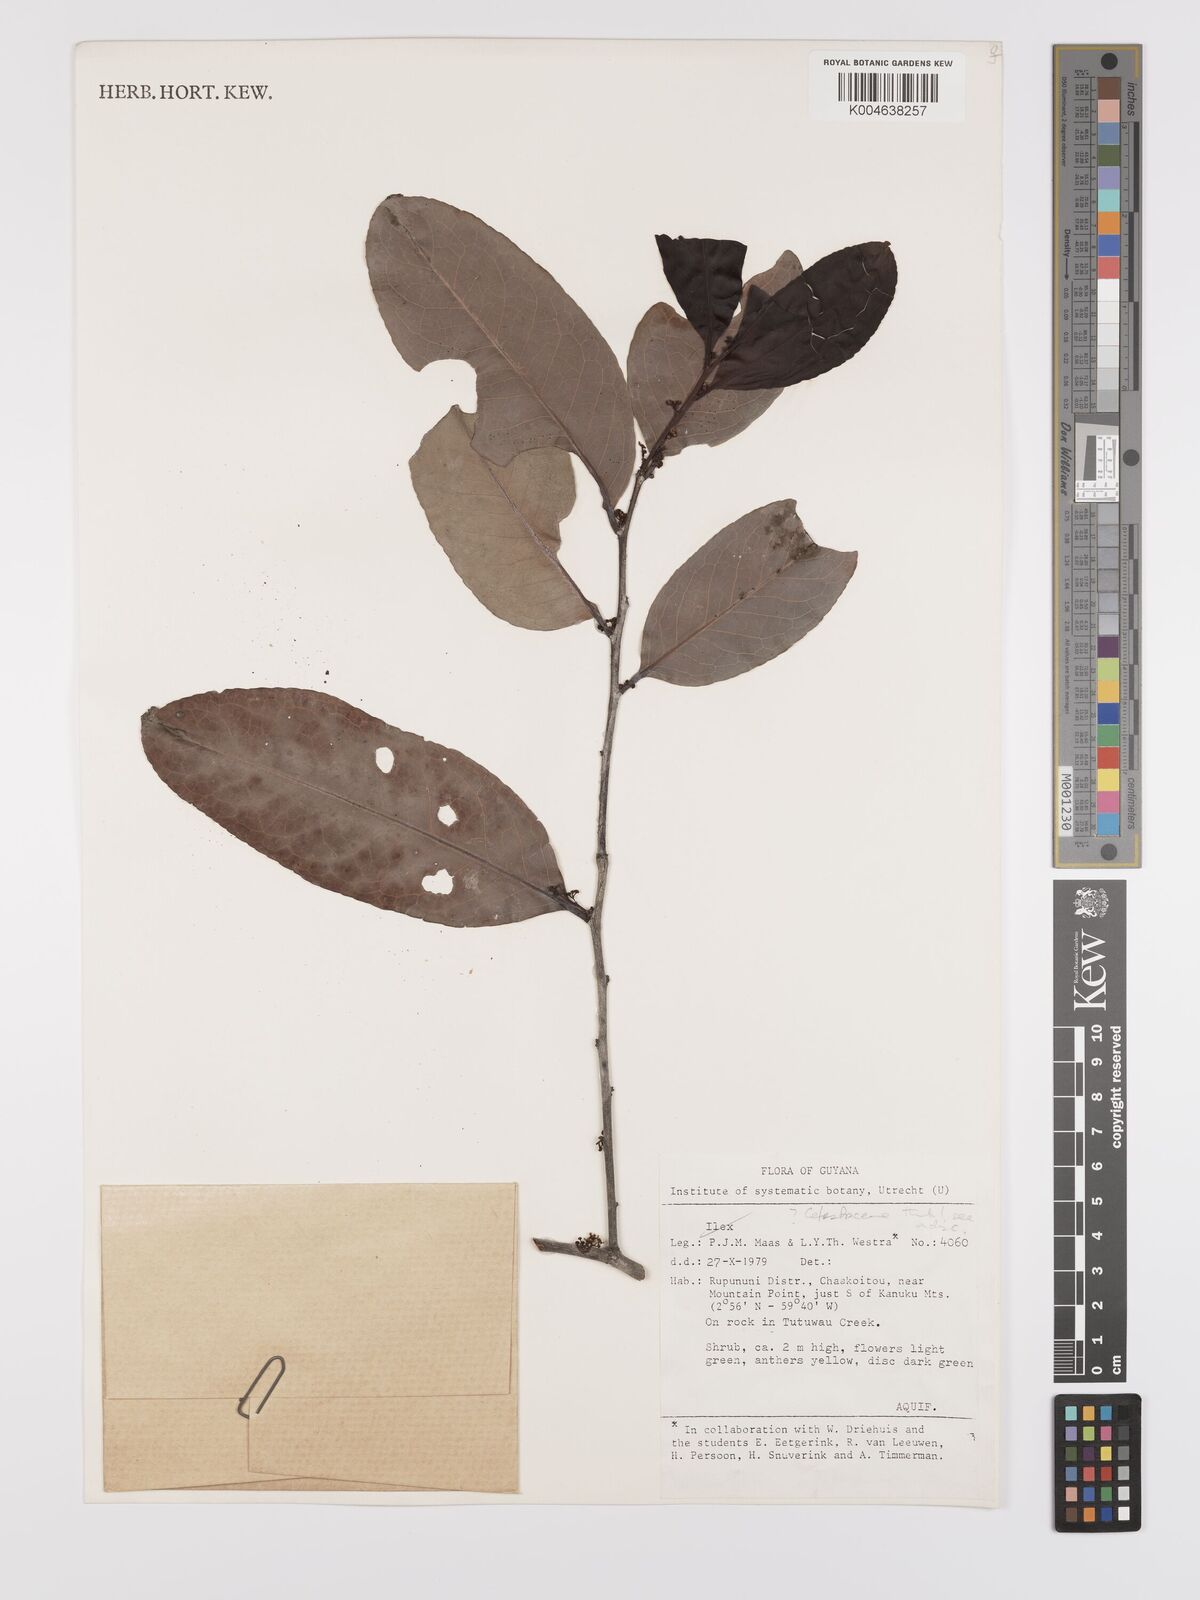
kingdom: Plantae
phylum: Tracheophyta
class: Magnoliopsida
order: Celastrales
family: Celastraceae
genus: Maytenus
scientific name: Maytenus
